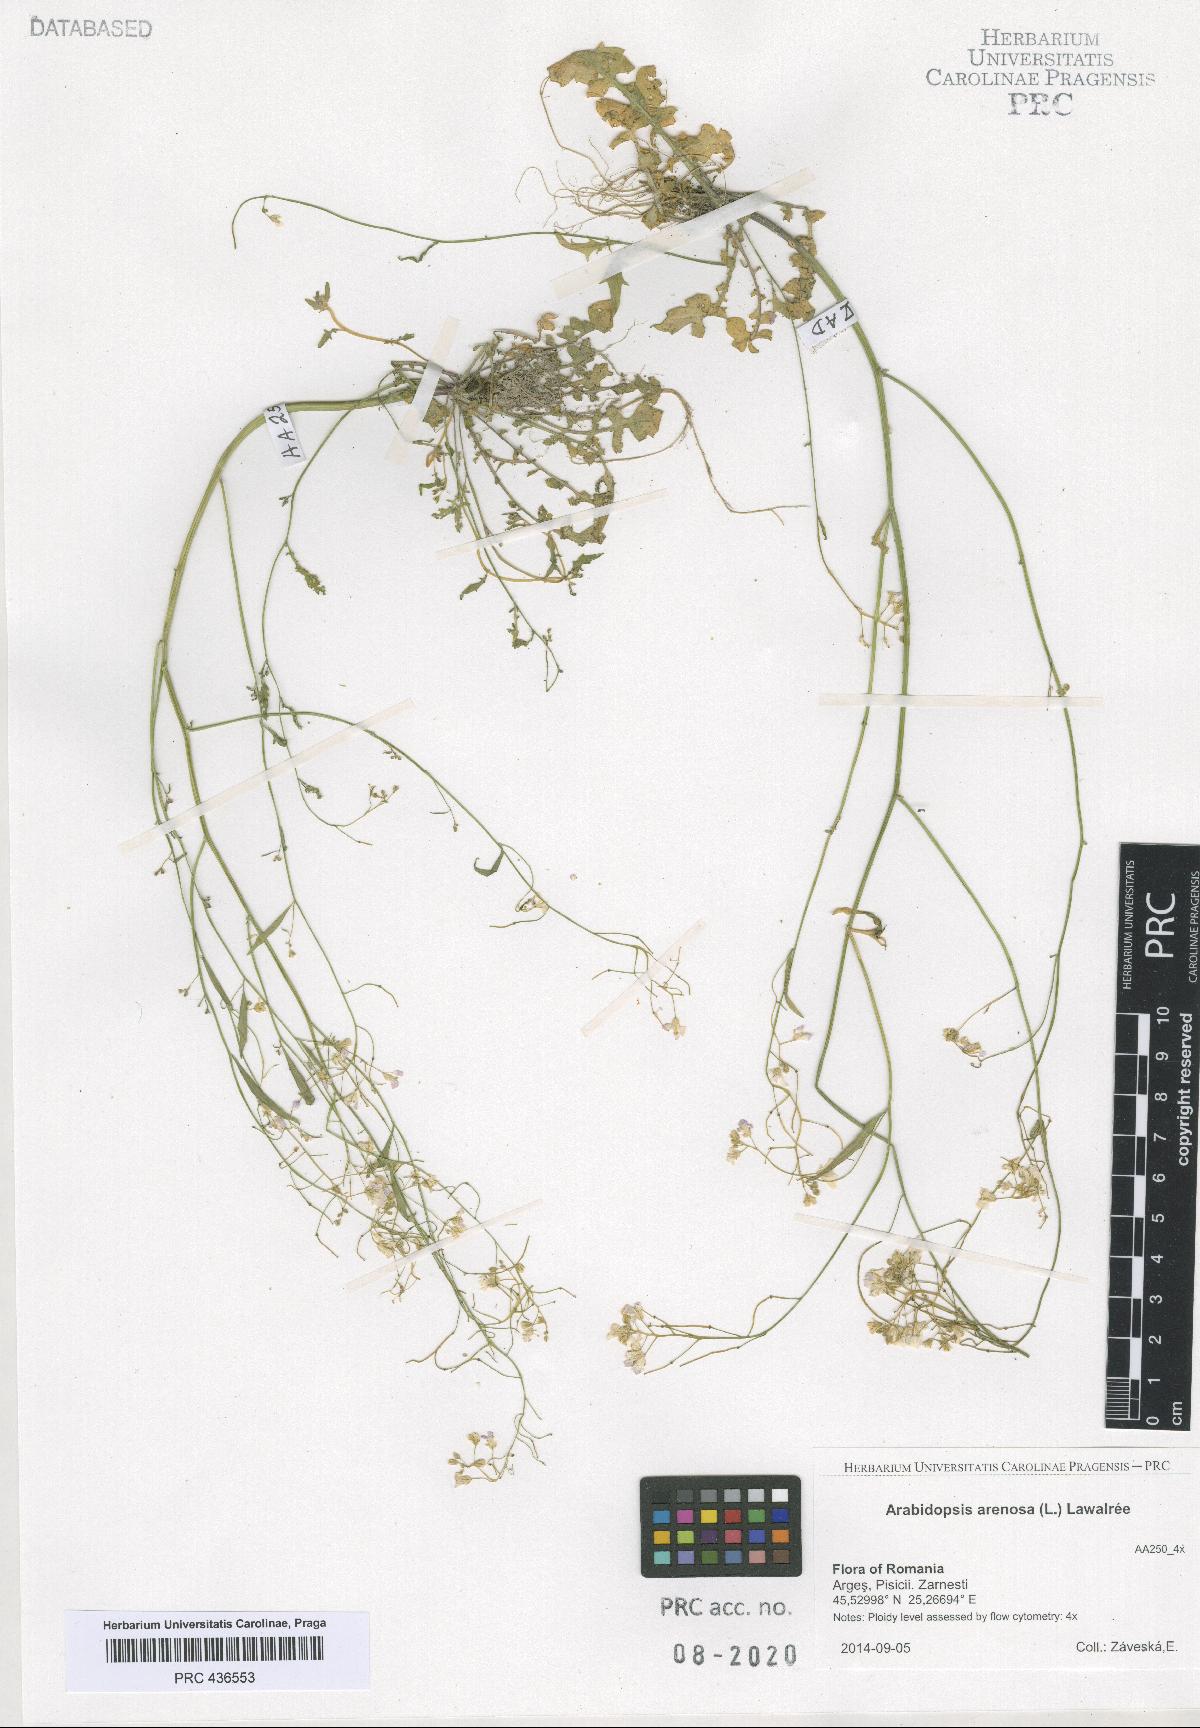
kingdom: Plantae
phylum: Tracheophyta
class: Magnoliopsida
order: Brassicales
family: Brassicaceae
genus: Arabidopsis
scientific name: Arabidopsis arenosa
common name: Sand rock-cress
